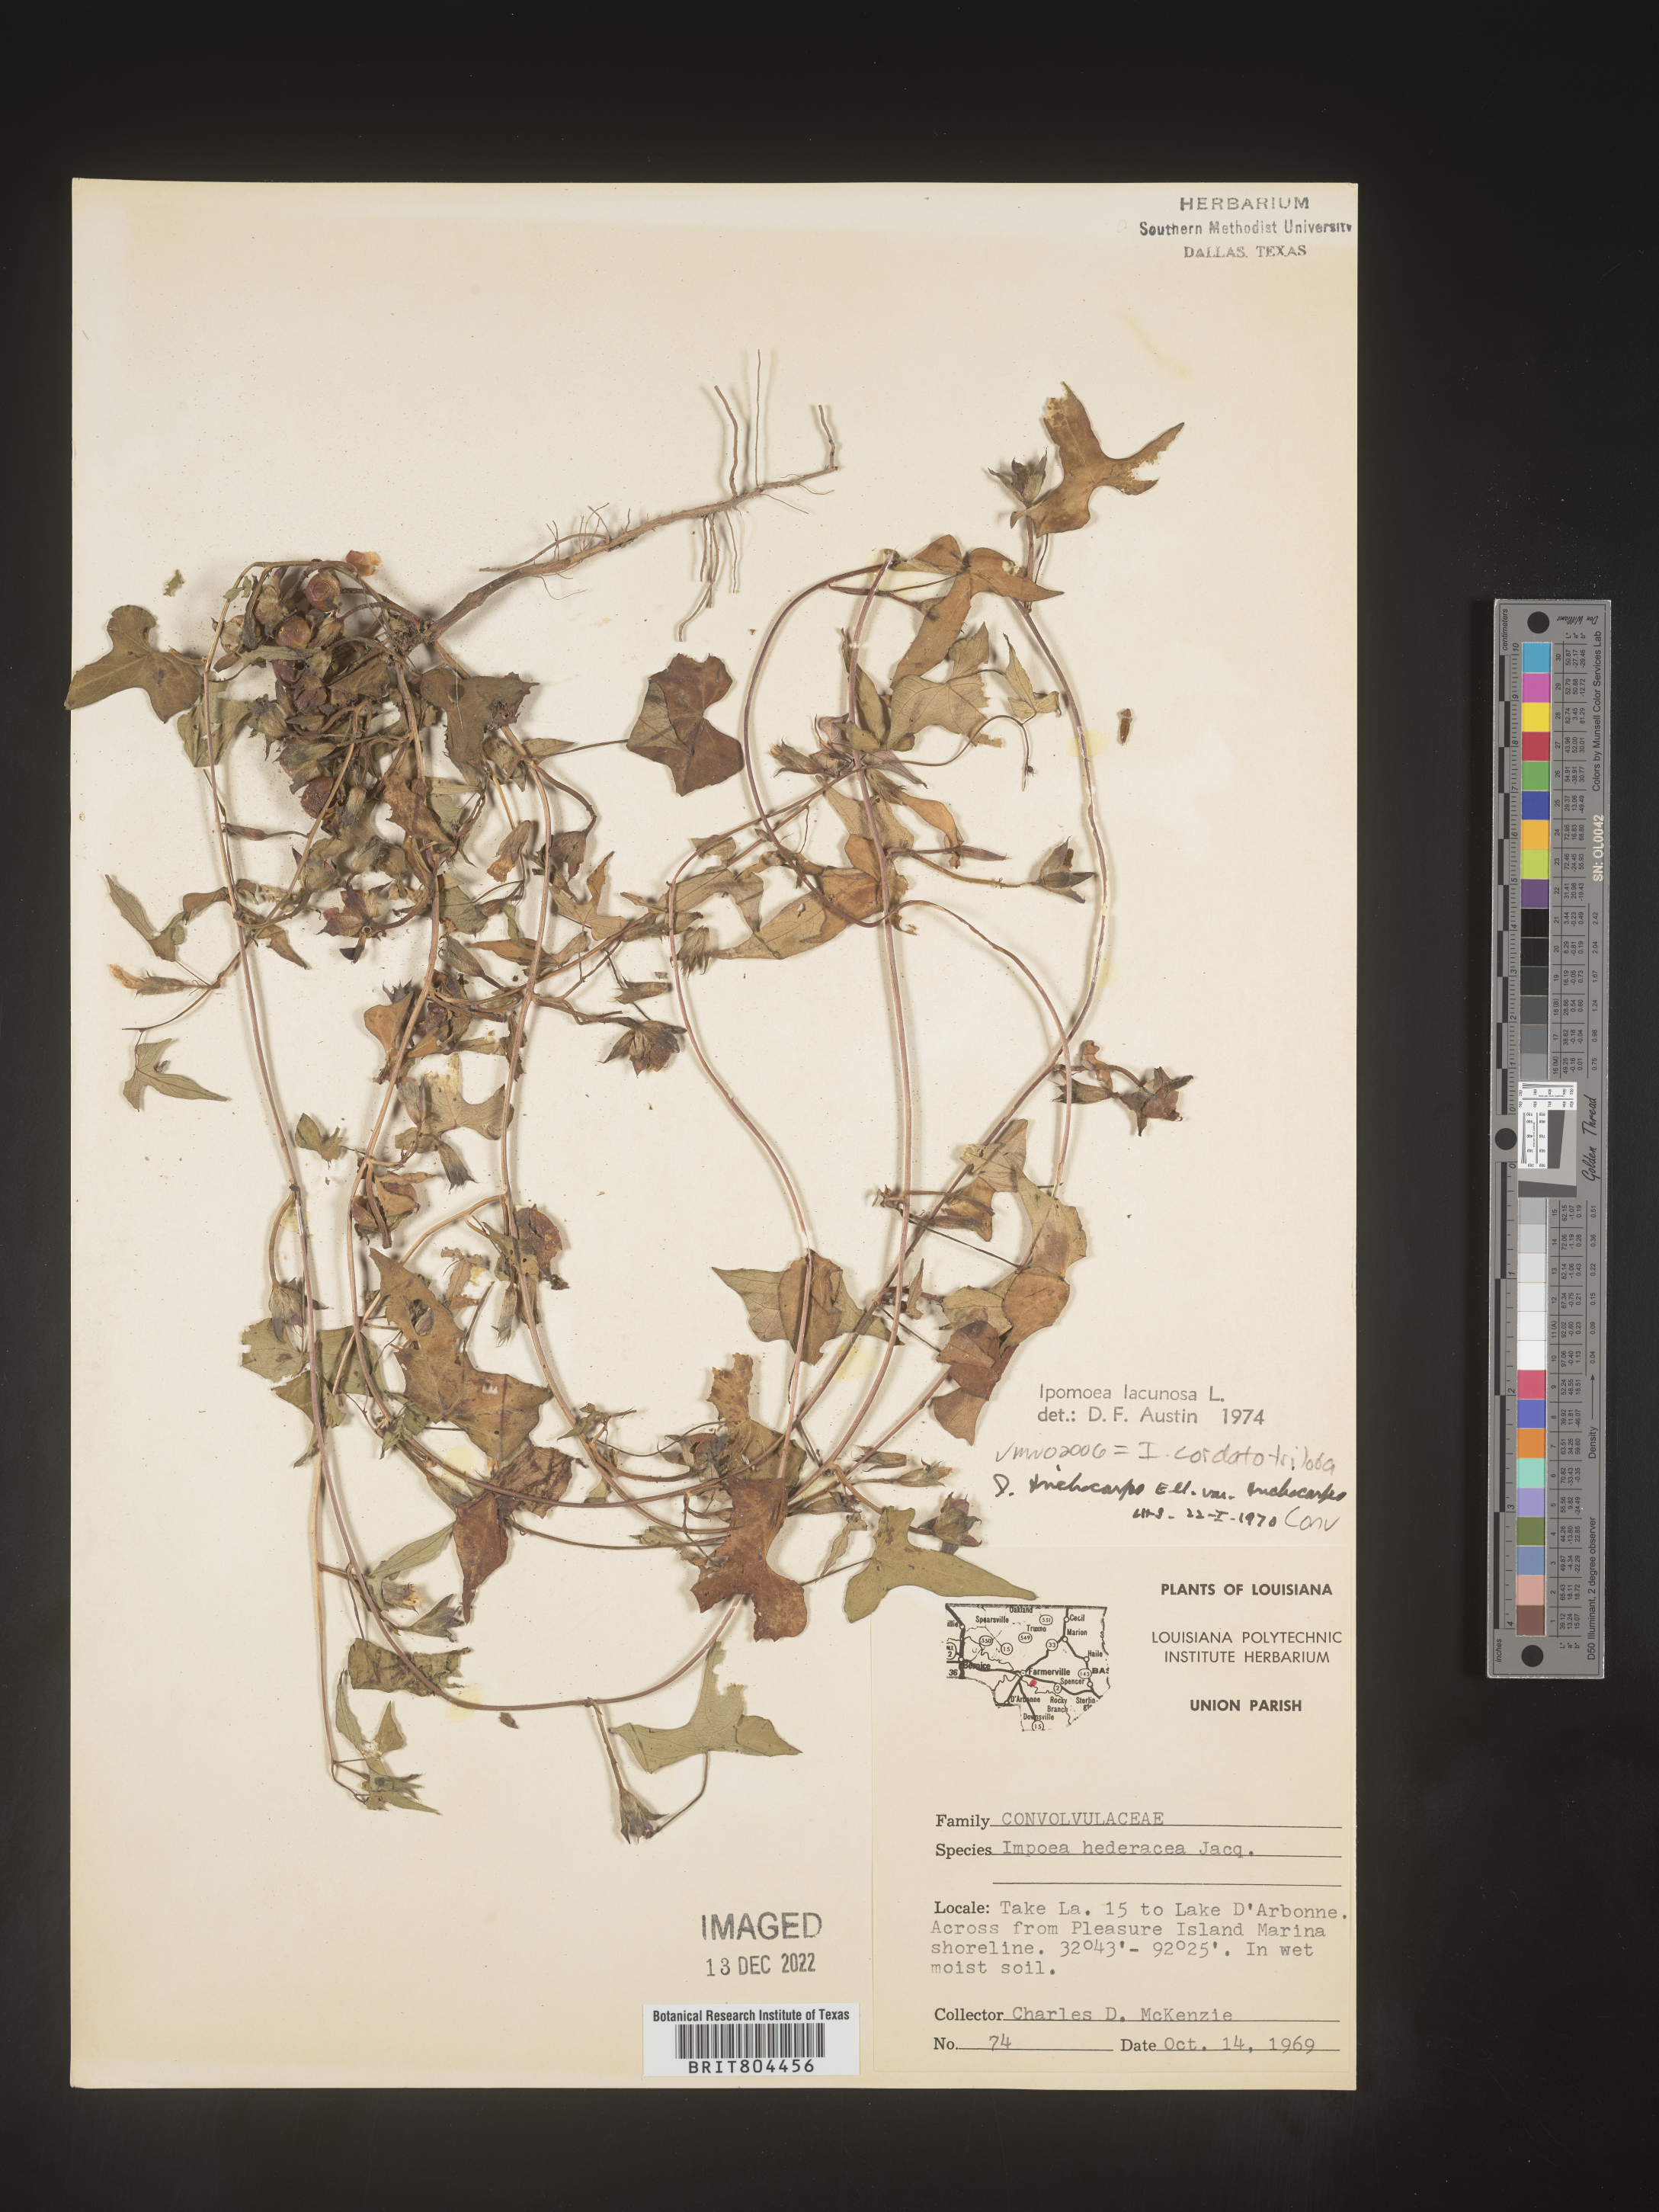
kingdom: Plantae
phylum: Tracheophyta
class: Magnoliopsida
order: Solanales
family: Convolvulaceae
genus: Ipomoea
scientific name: Ipomoea cordatotriloba
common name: Cotton morning glory
